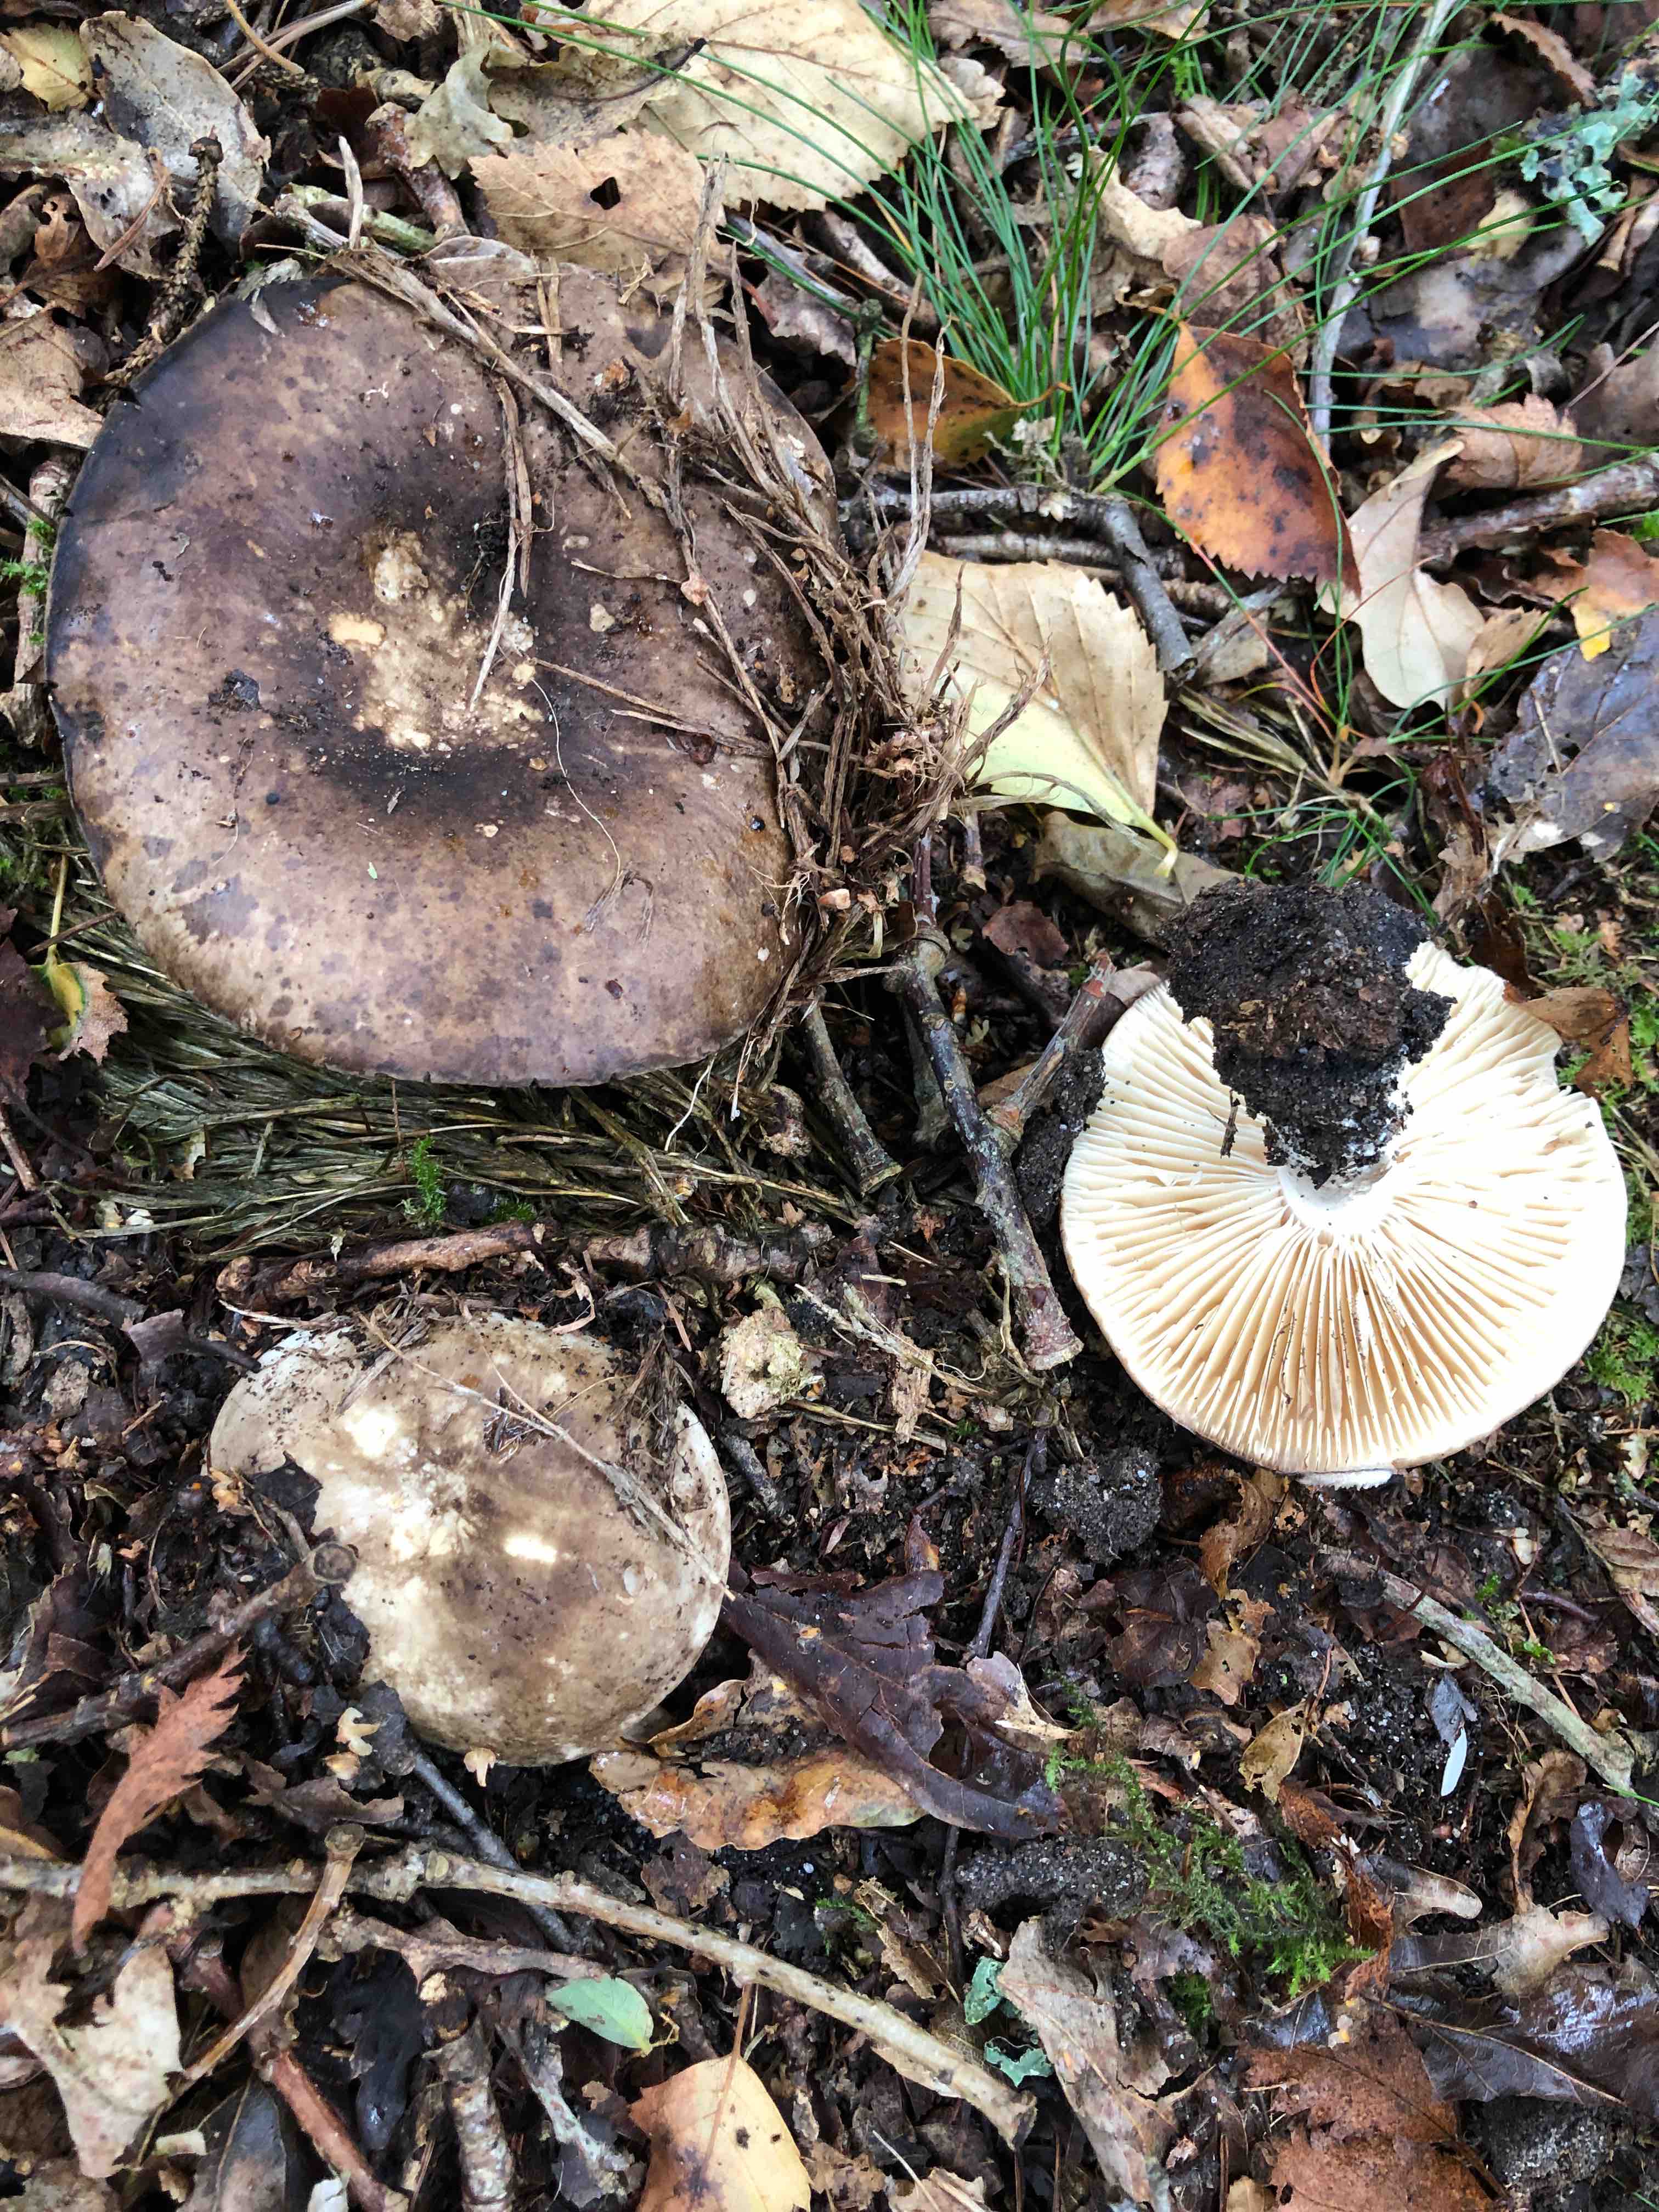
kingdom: Fungi
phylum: Basidiomycota
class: Agaricomycetes
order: Russulales
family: Russulaceae
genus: Russula
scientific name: Russula adusta
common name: sværtende skørhat
